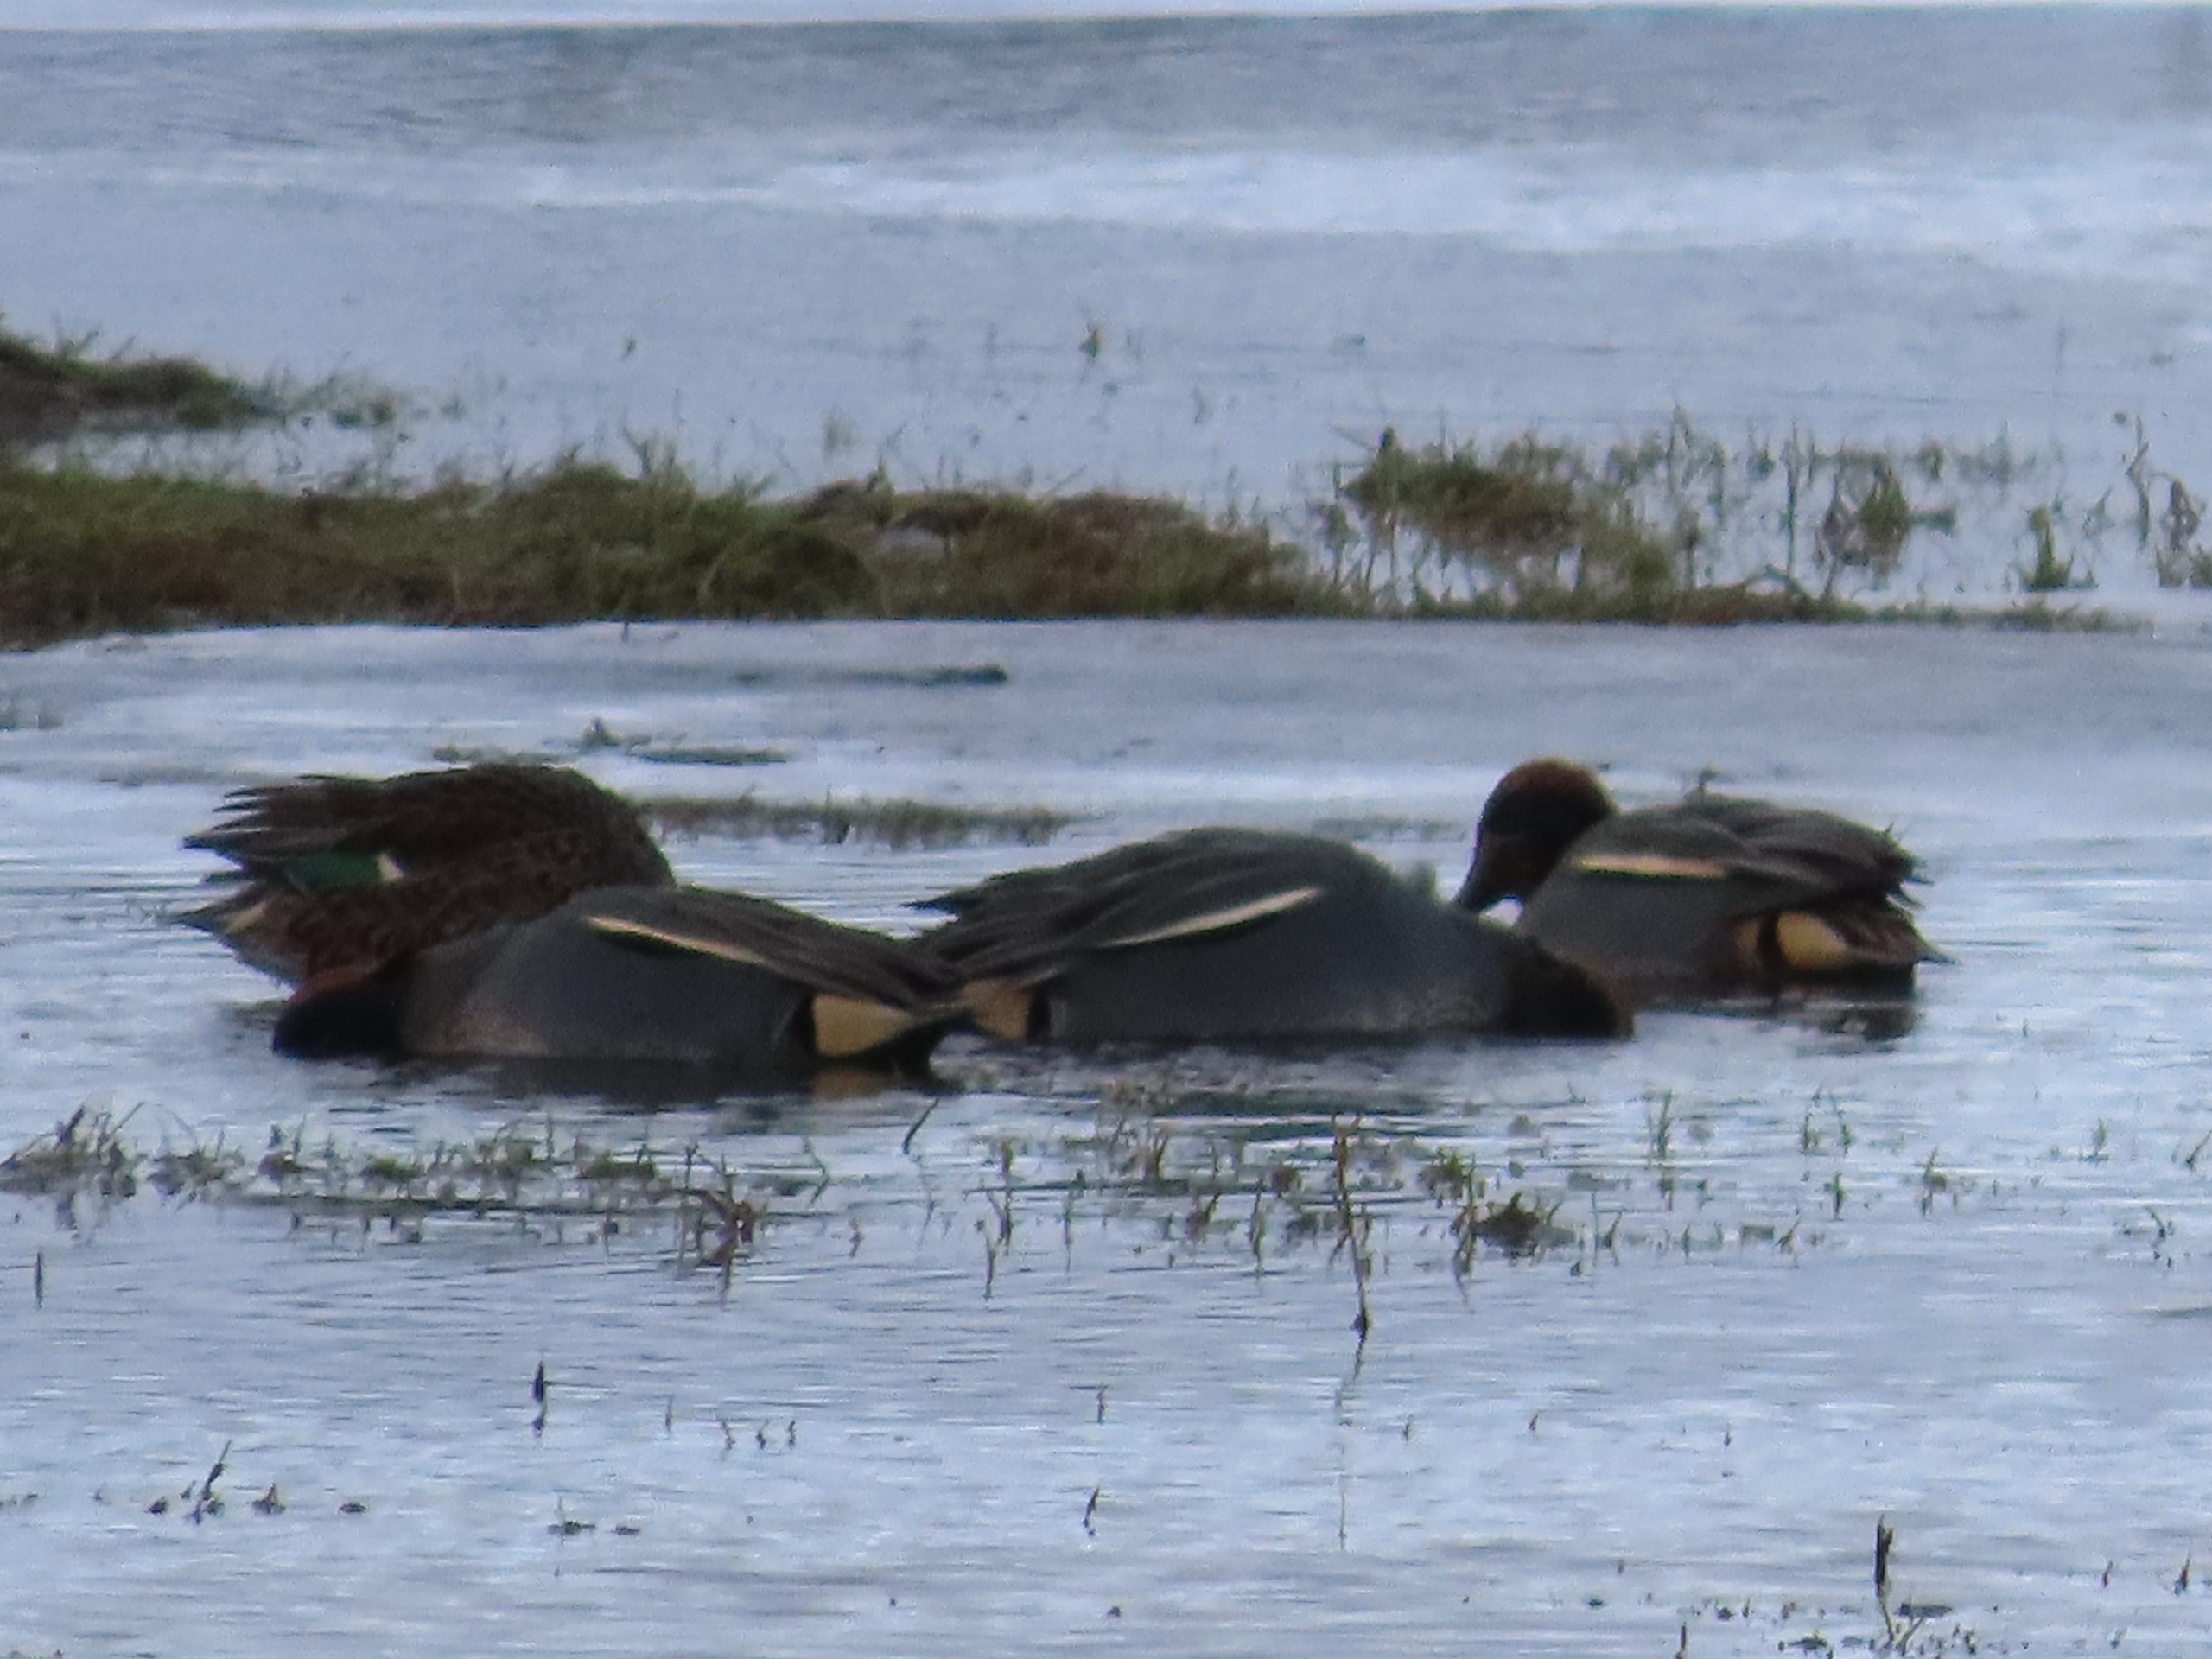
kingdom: Animalia
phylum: Chordata
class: Aves
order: Anseriformes
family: Anatidae
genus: Anas
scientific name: Anas crecca
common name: Krikand
